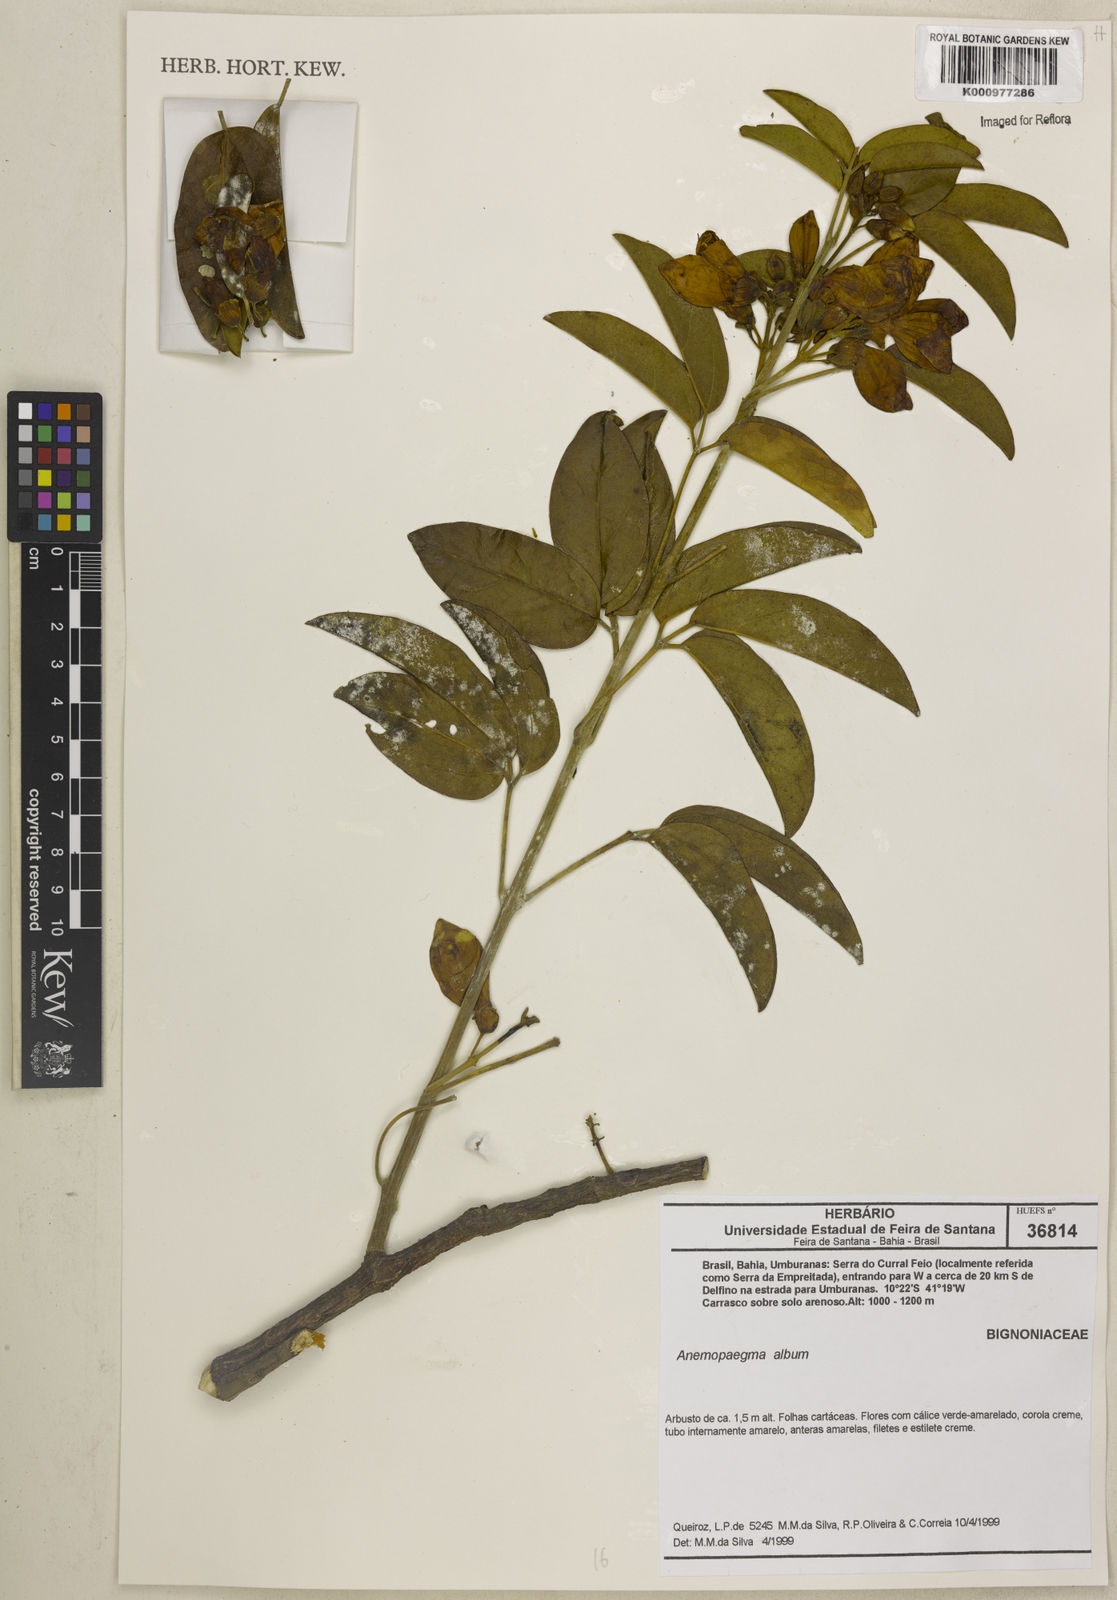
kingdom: Plantae
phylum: Tracheophyta
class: Magnoliopsida
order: Lamiales
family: Bignoniaceae
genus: Anemopaegma
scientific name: Anemopaegma album
